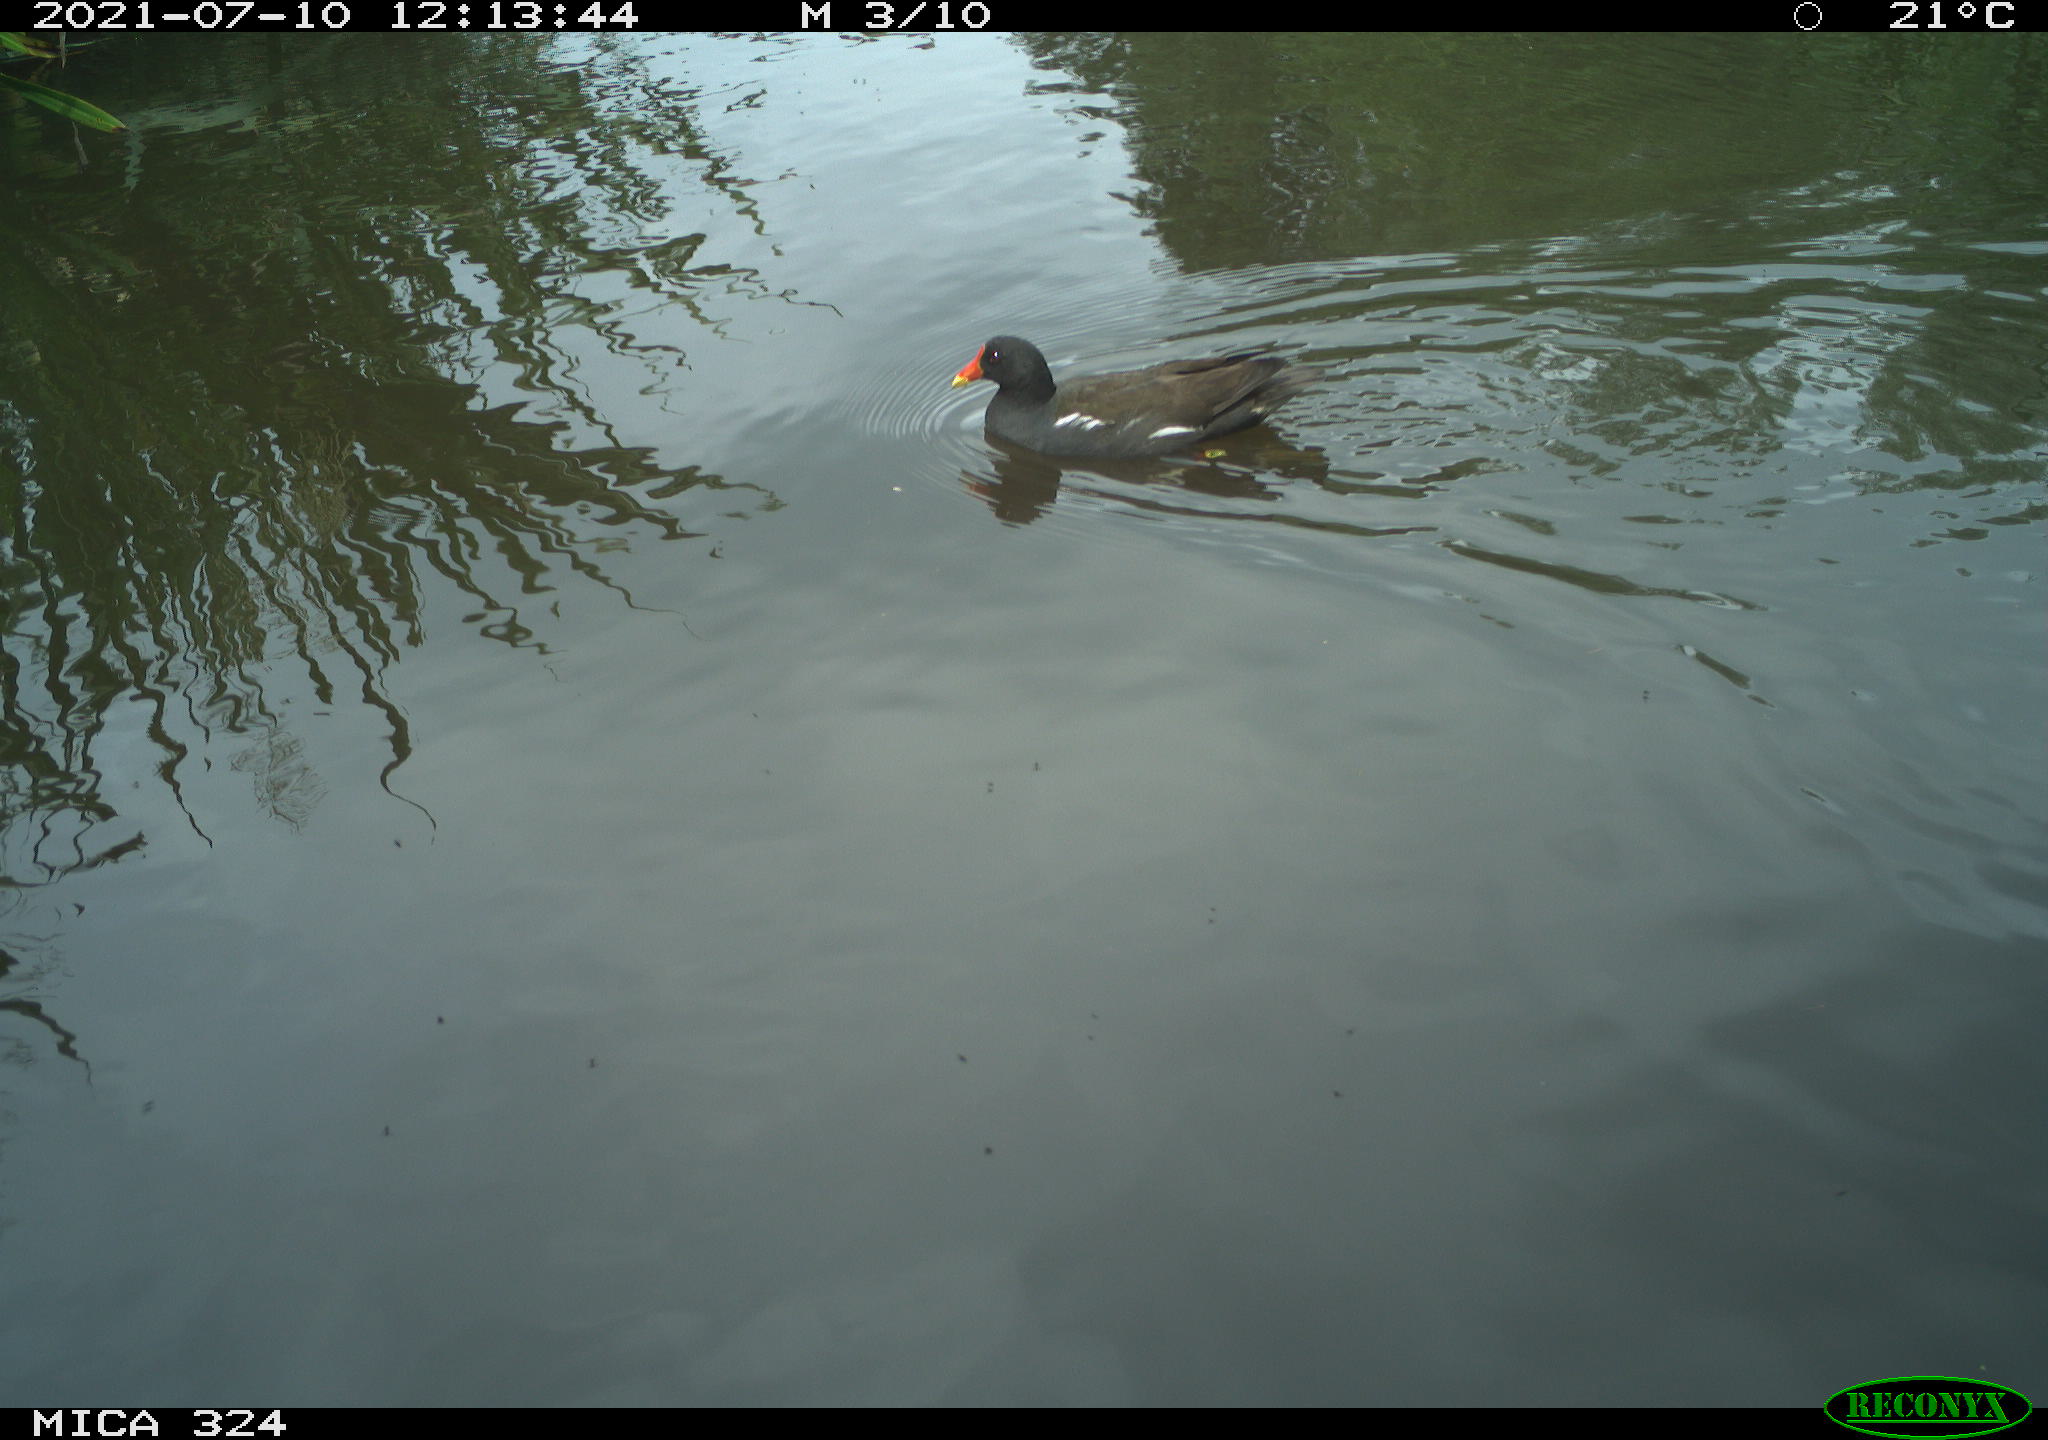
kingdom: Animalia
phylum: Chordata
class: Aves
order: Gruiformes
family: Rallidae
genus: Gallinula
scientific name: Gallinula chloropus
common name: Common moorhen
